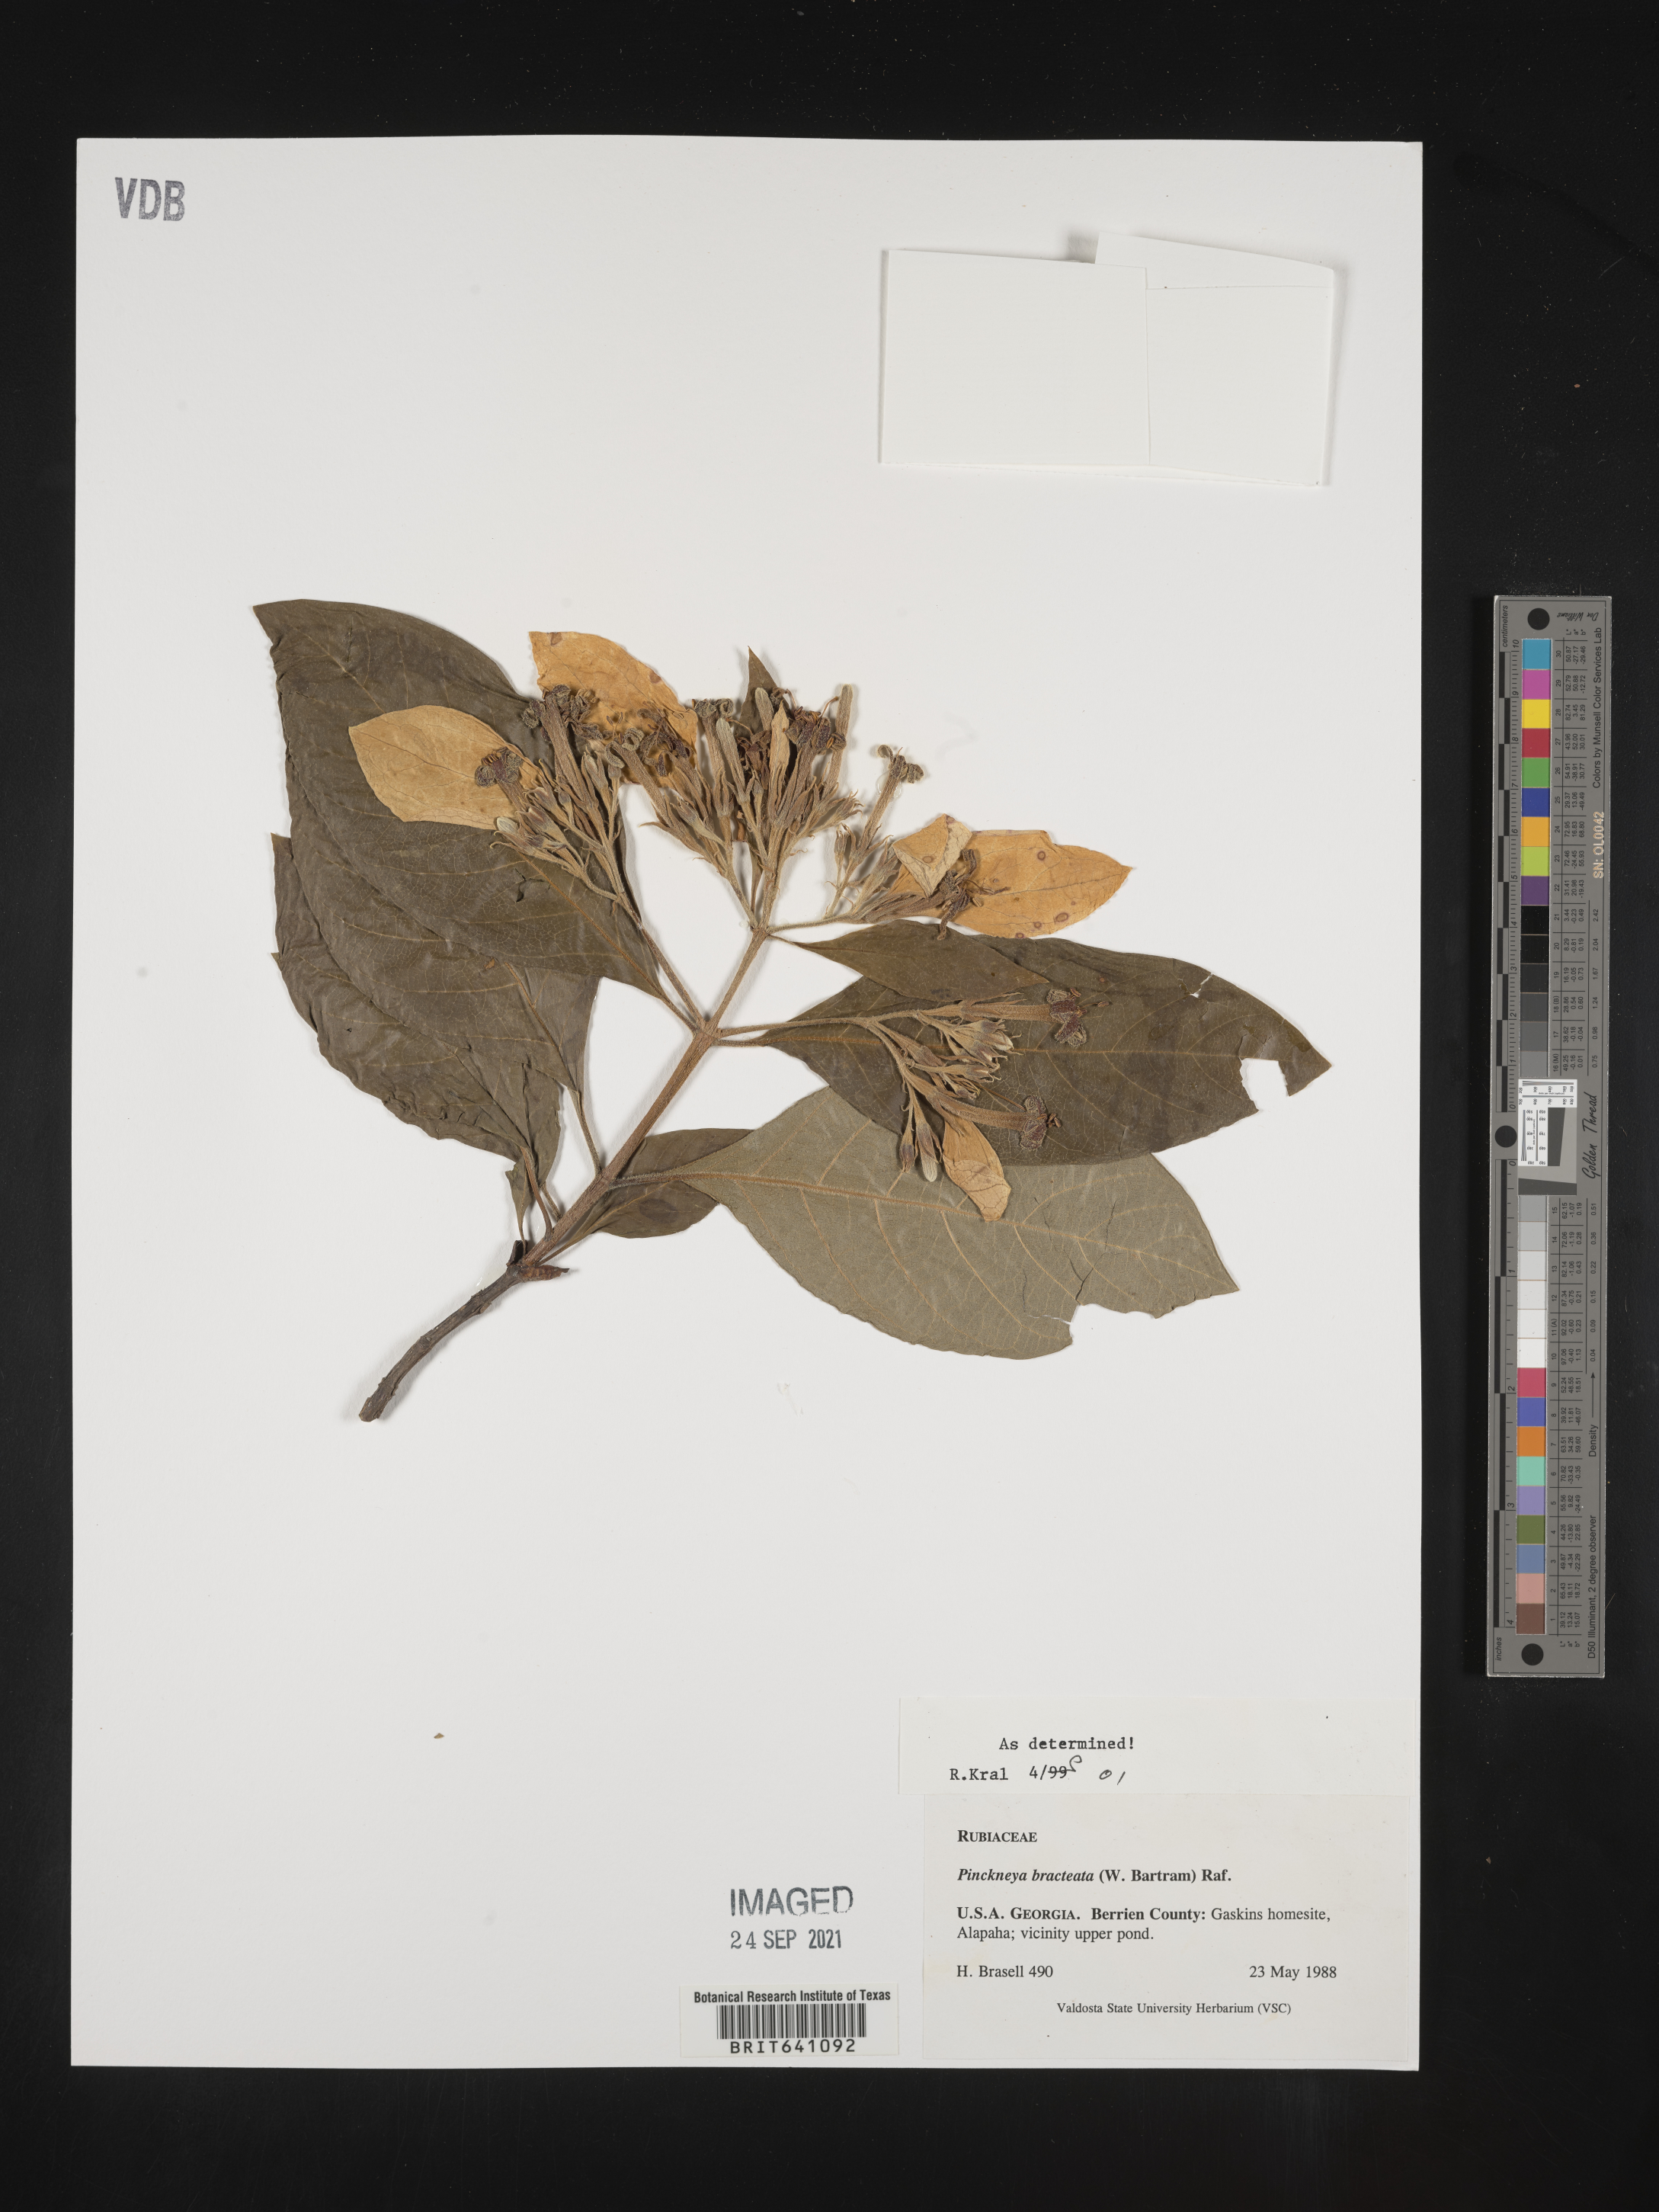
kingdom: Plantae
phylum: Tracheophyta
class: Magnoliopsida
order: Gentianales
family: Rubiaceae
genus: Pinckneya
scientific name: Pinckneya pubens
